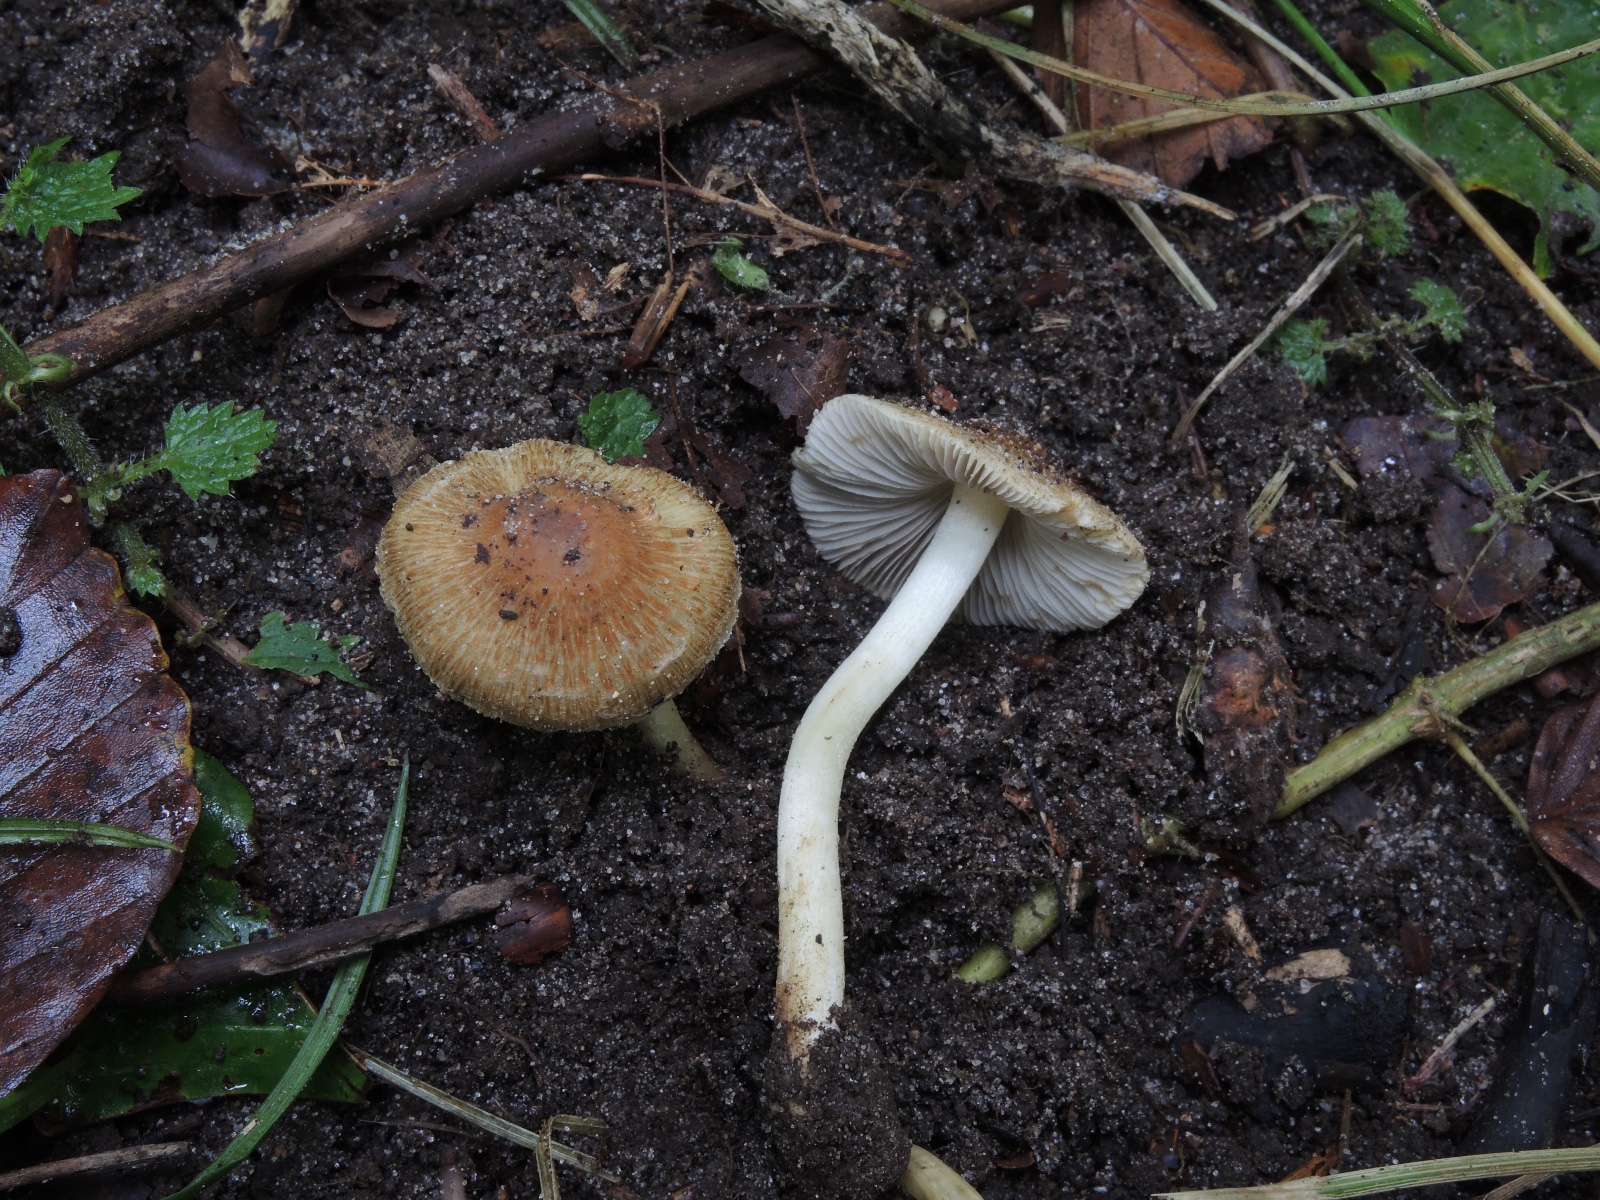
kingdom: Fungi
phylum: Basidiomycota
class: Agaricomycetes
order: Agaricales
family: Inocybaceae
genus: Inocybe
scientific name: Inocybe
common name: trævlhat
